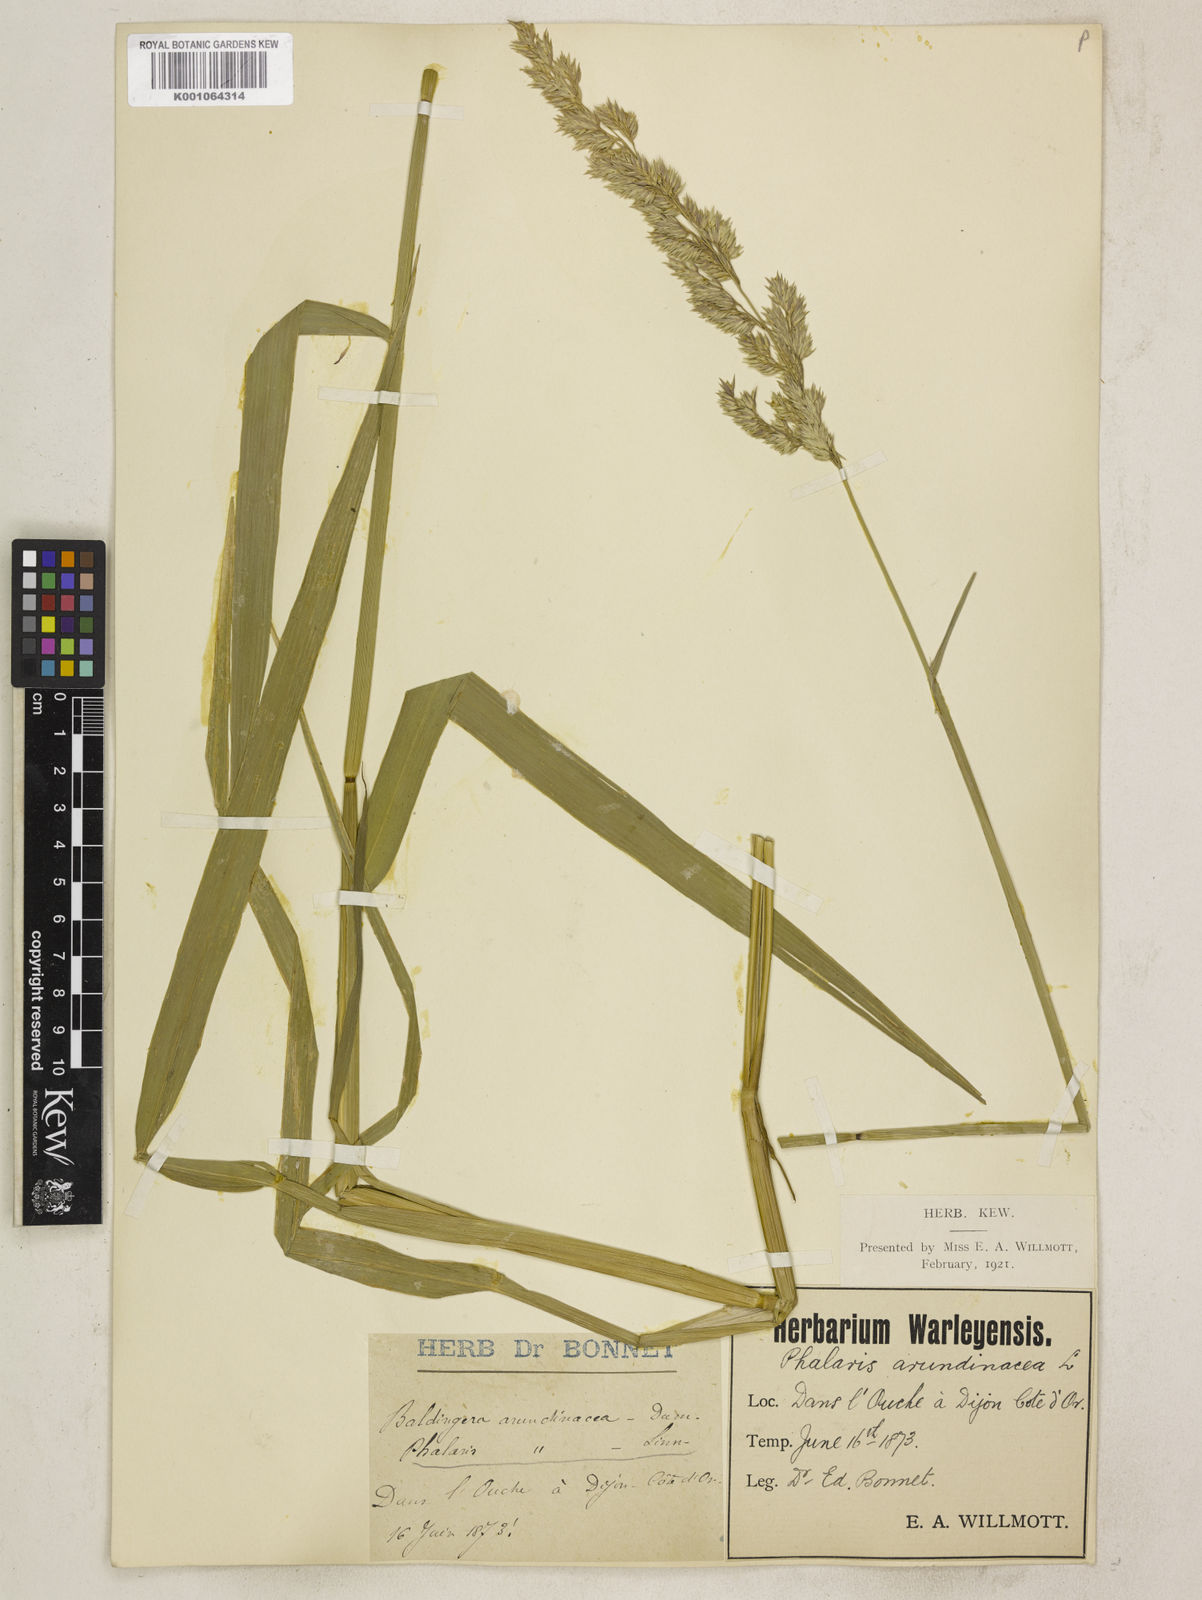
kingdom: Plantae
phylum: Tracheophyta
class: Liliopsida
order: Poales
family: Poaceae
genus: Phalaris
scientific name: Phalaris arundinacea
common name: Reed canary-grass
